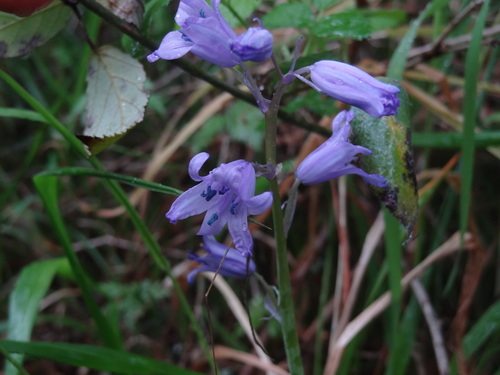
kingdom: Plantae
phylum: Tracheophyta
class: Liliopsida
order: Asparagales
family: Asparagaceae
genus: Hyacinthoides
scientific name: Hyacinthoides hispanica
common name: Spanish bluebell
